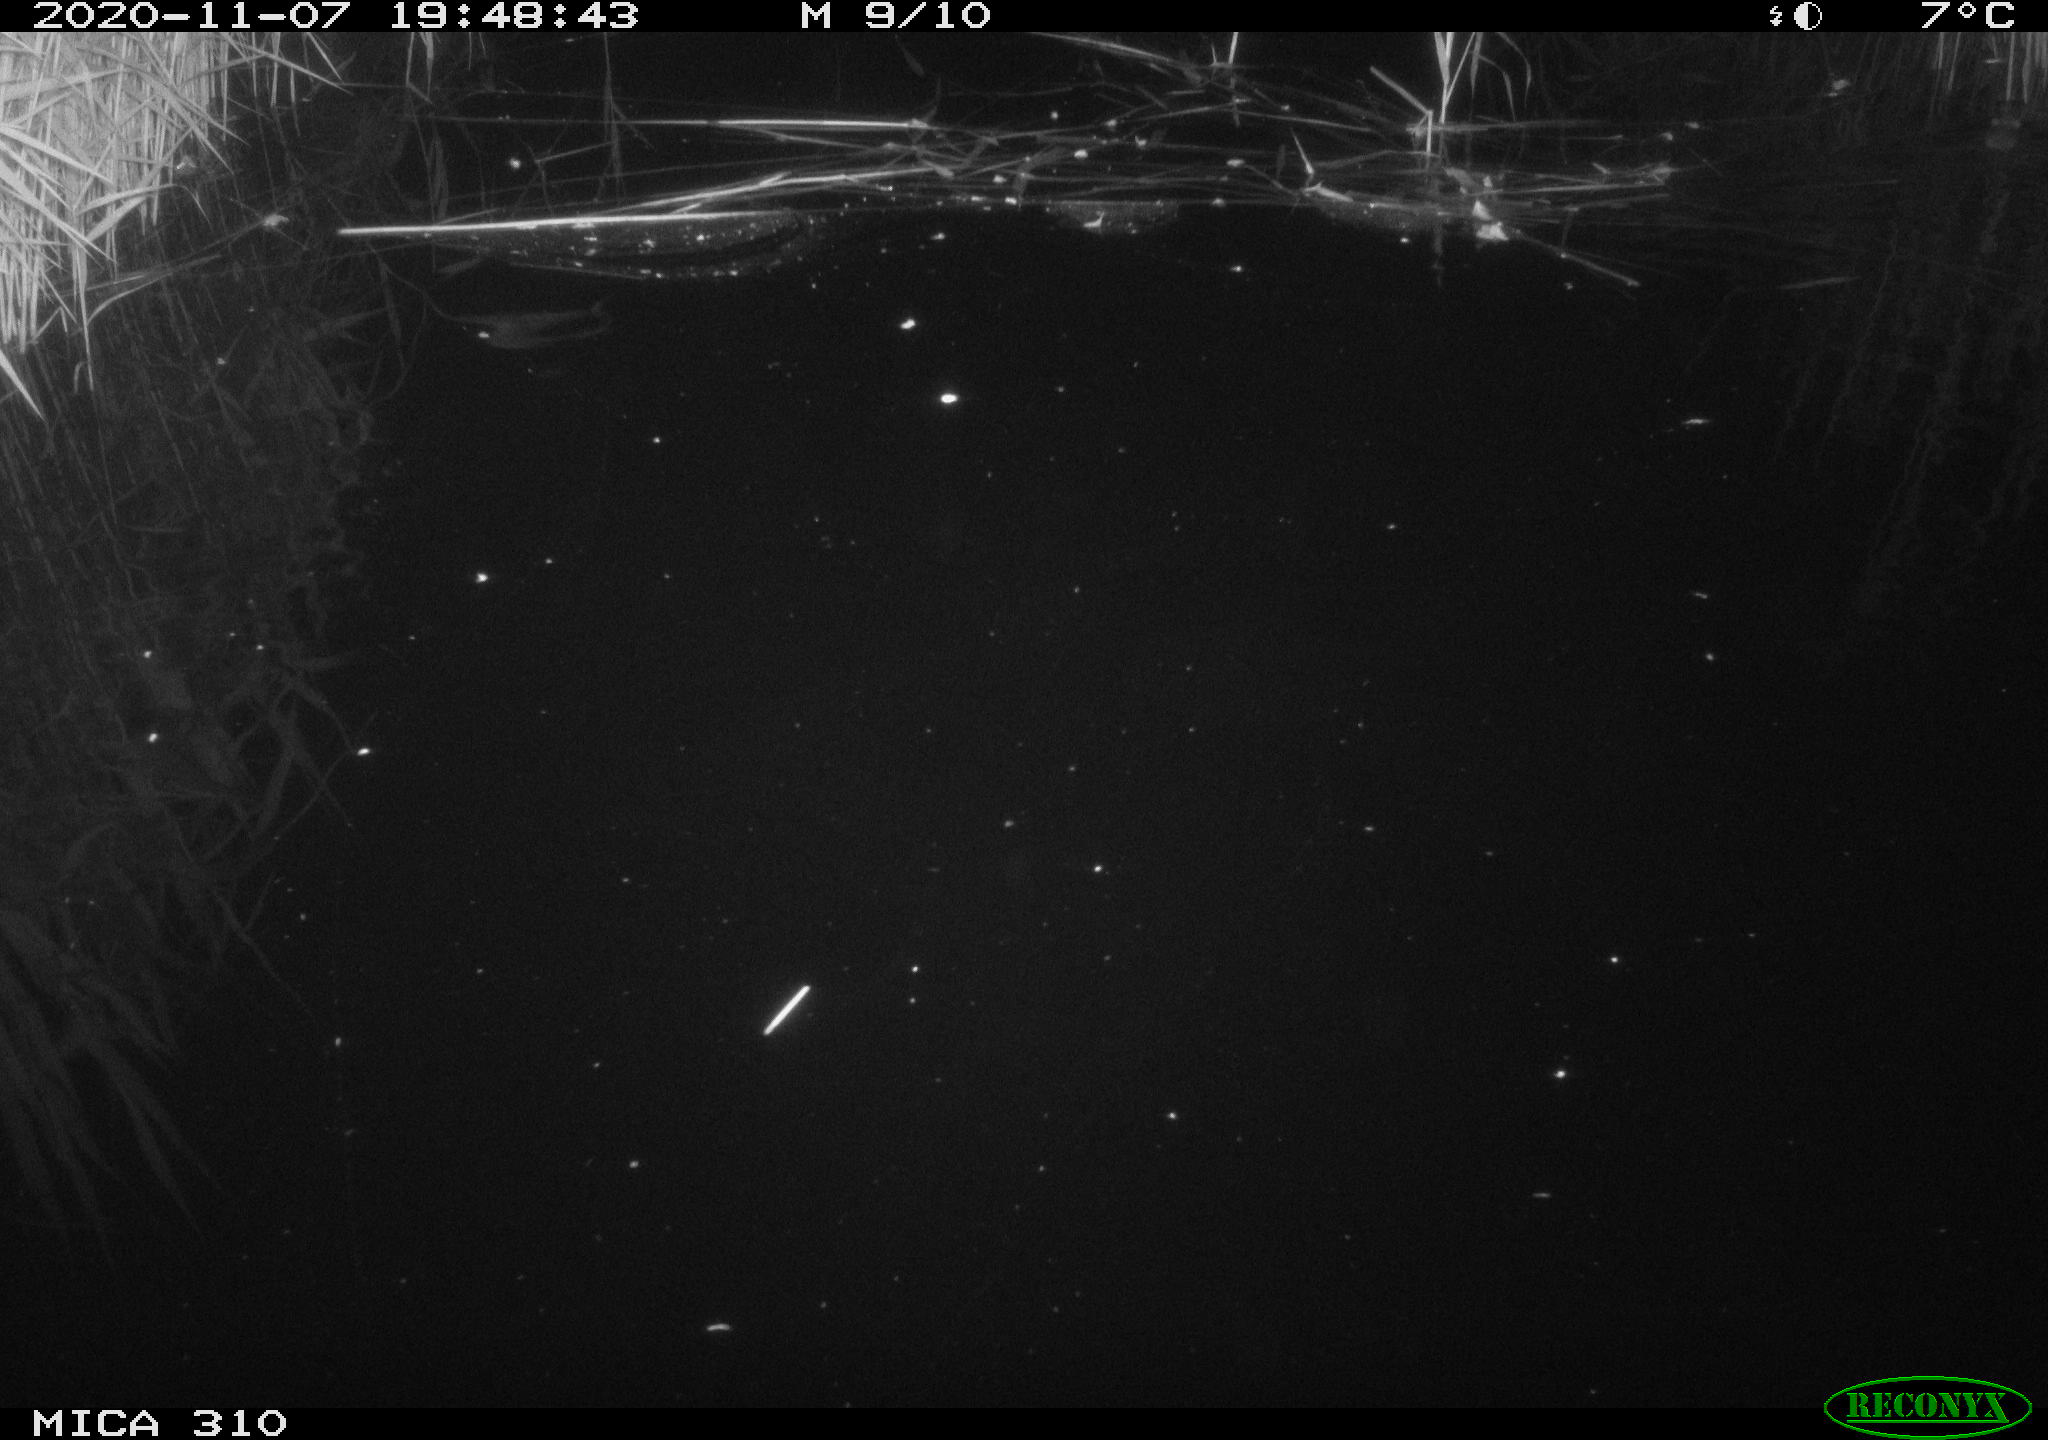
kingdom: Animalia
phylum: Chordata
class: Mammalia
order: Rodentia
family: Muridae
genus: Rattus
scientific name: Rattus norvegicus
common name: Brown rat
